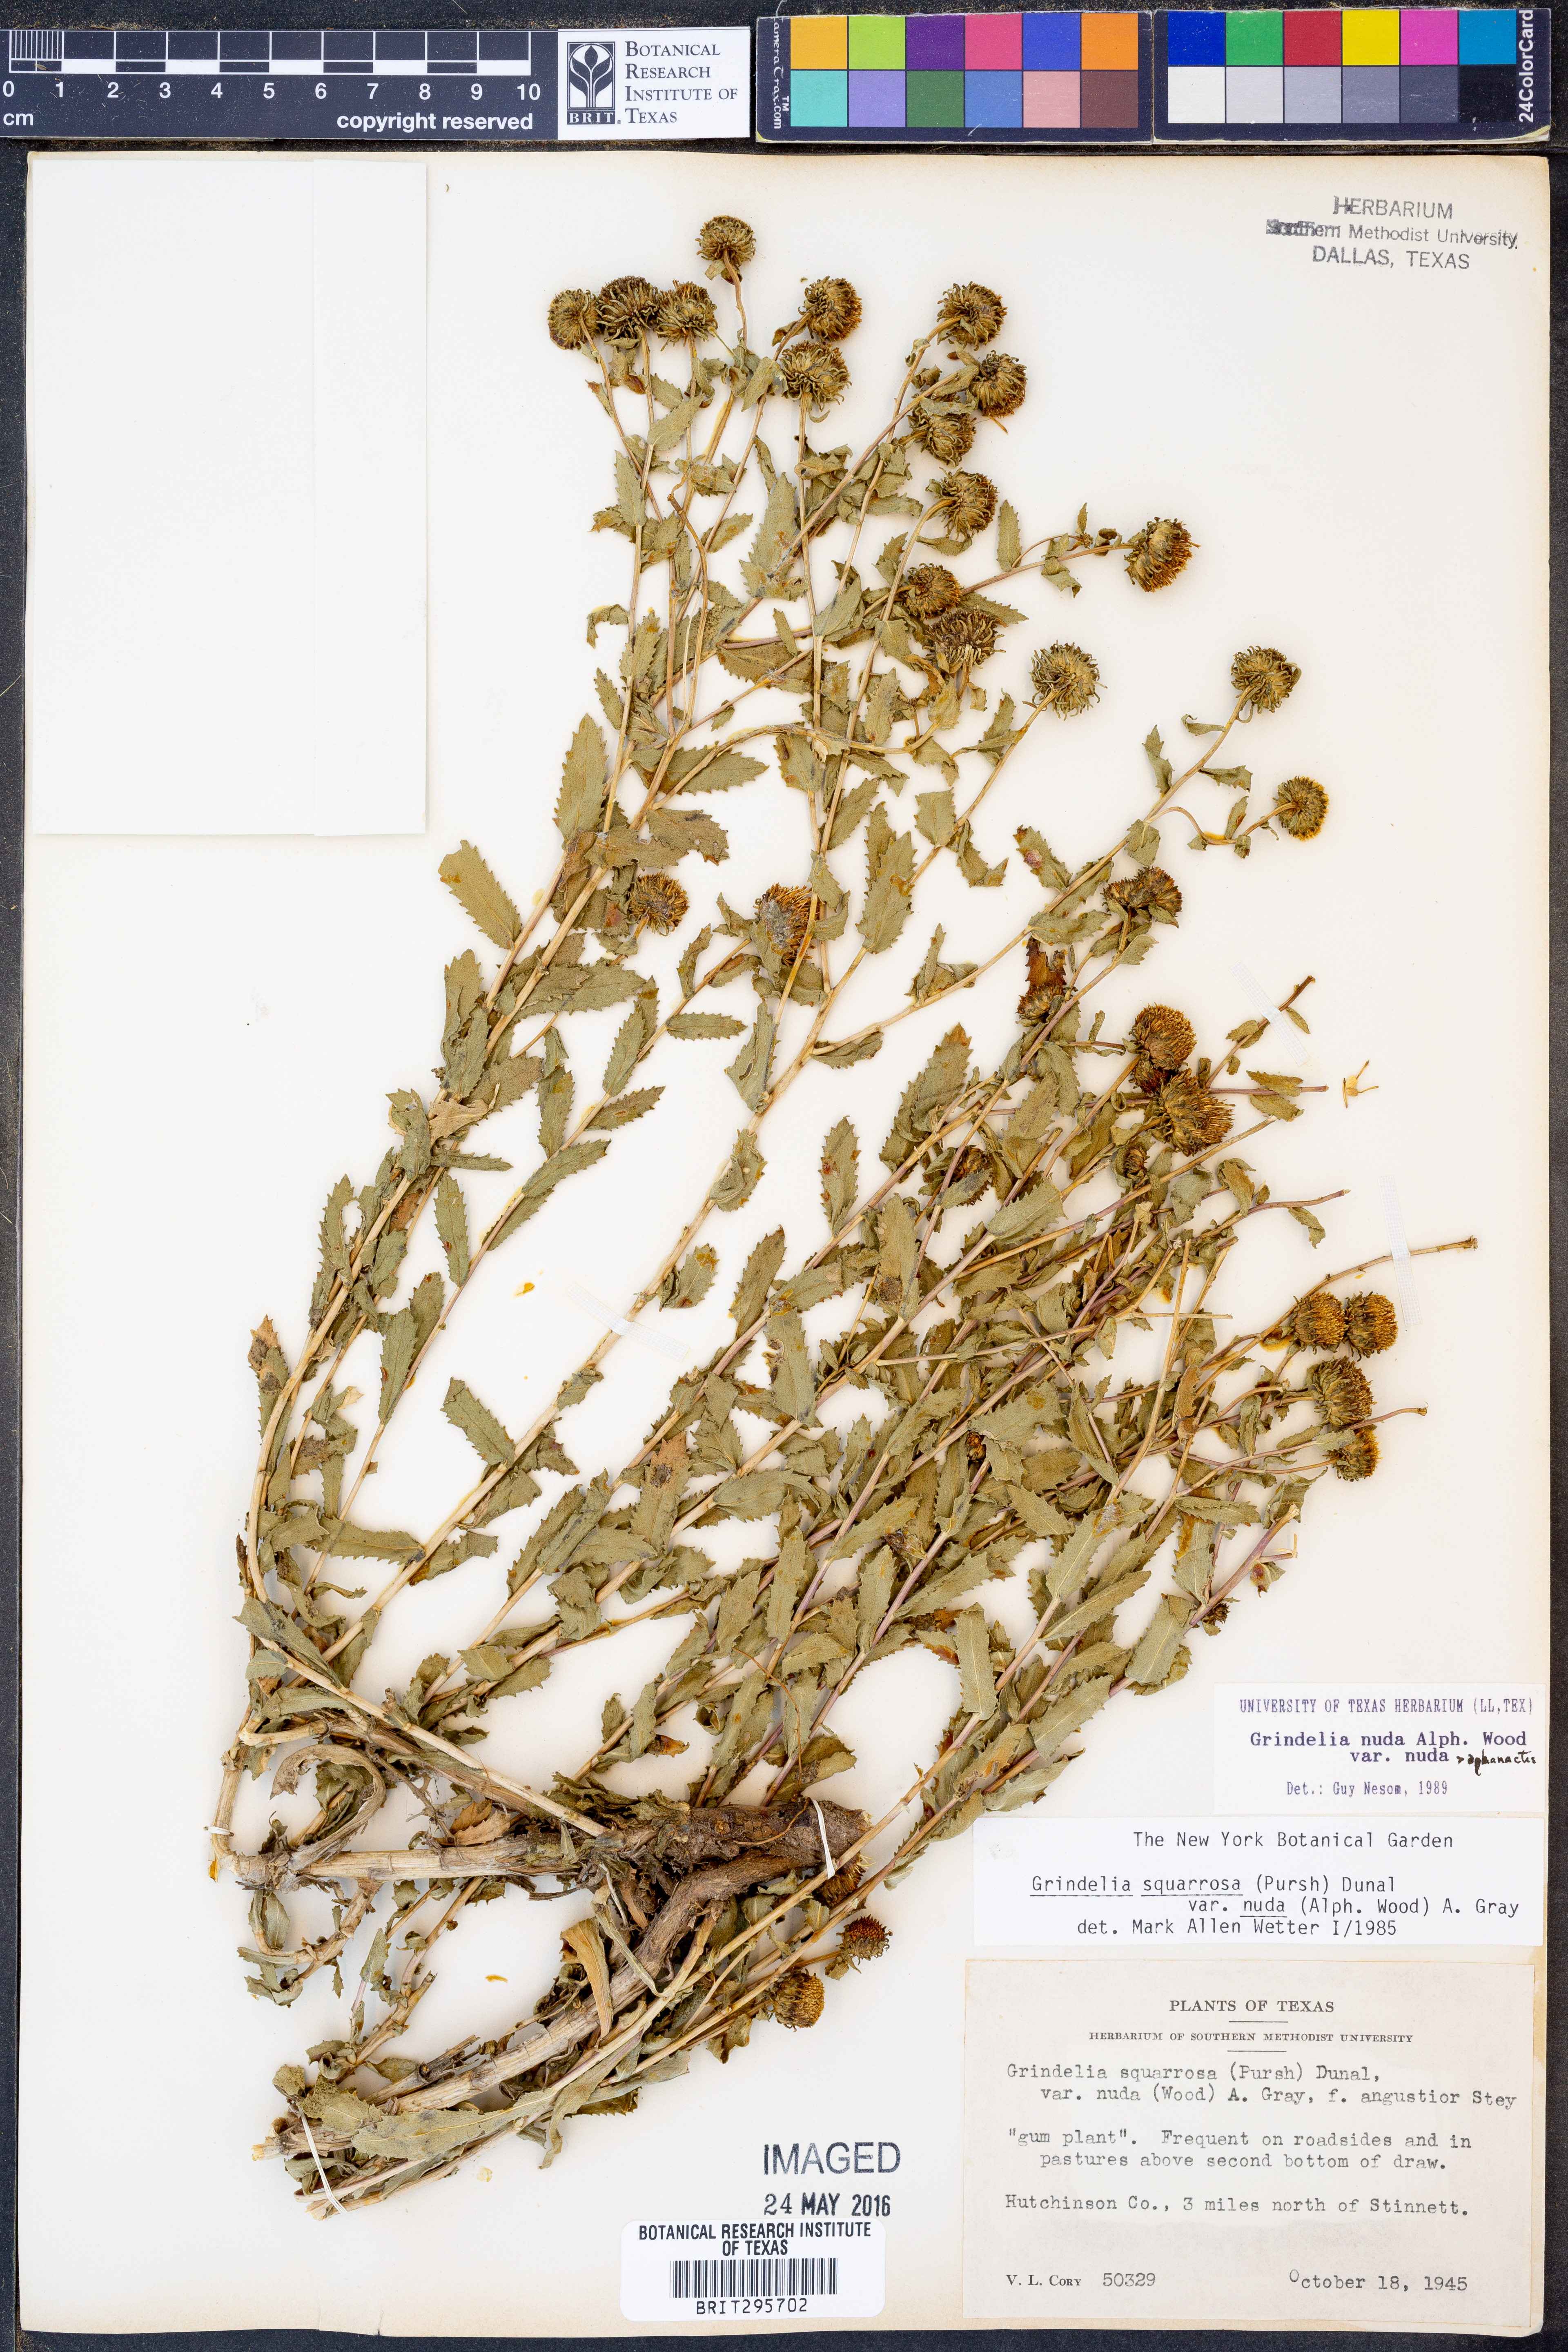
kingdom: Plantae
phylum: Tracheophyta
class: Magnoliopsida
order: Asterales
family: Asteraceae
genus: Grindelia
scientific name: Grindelia nuda
